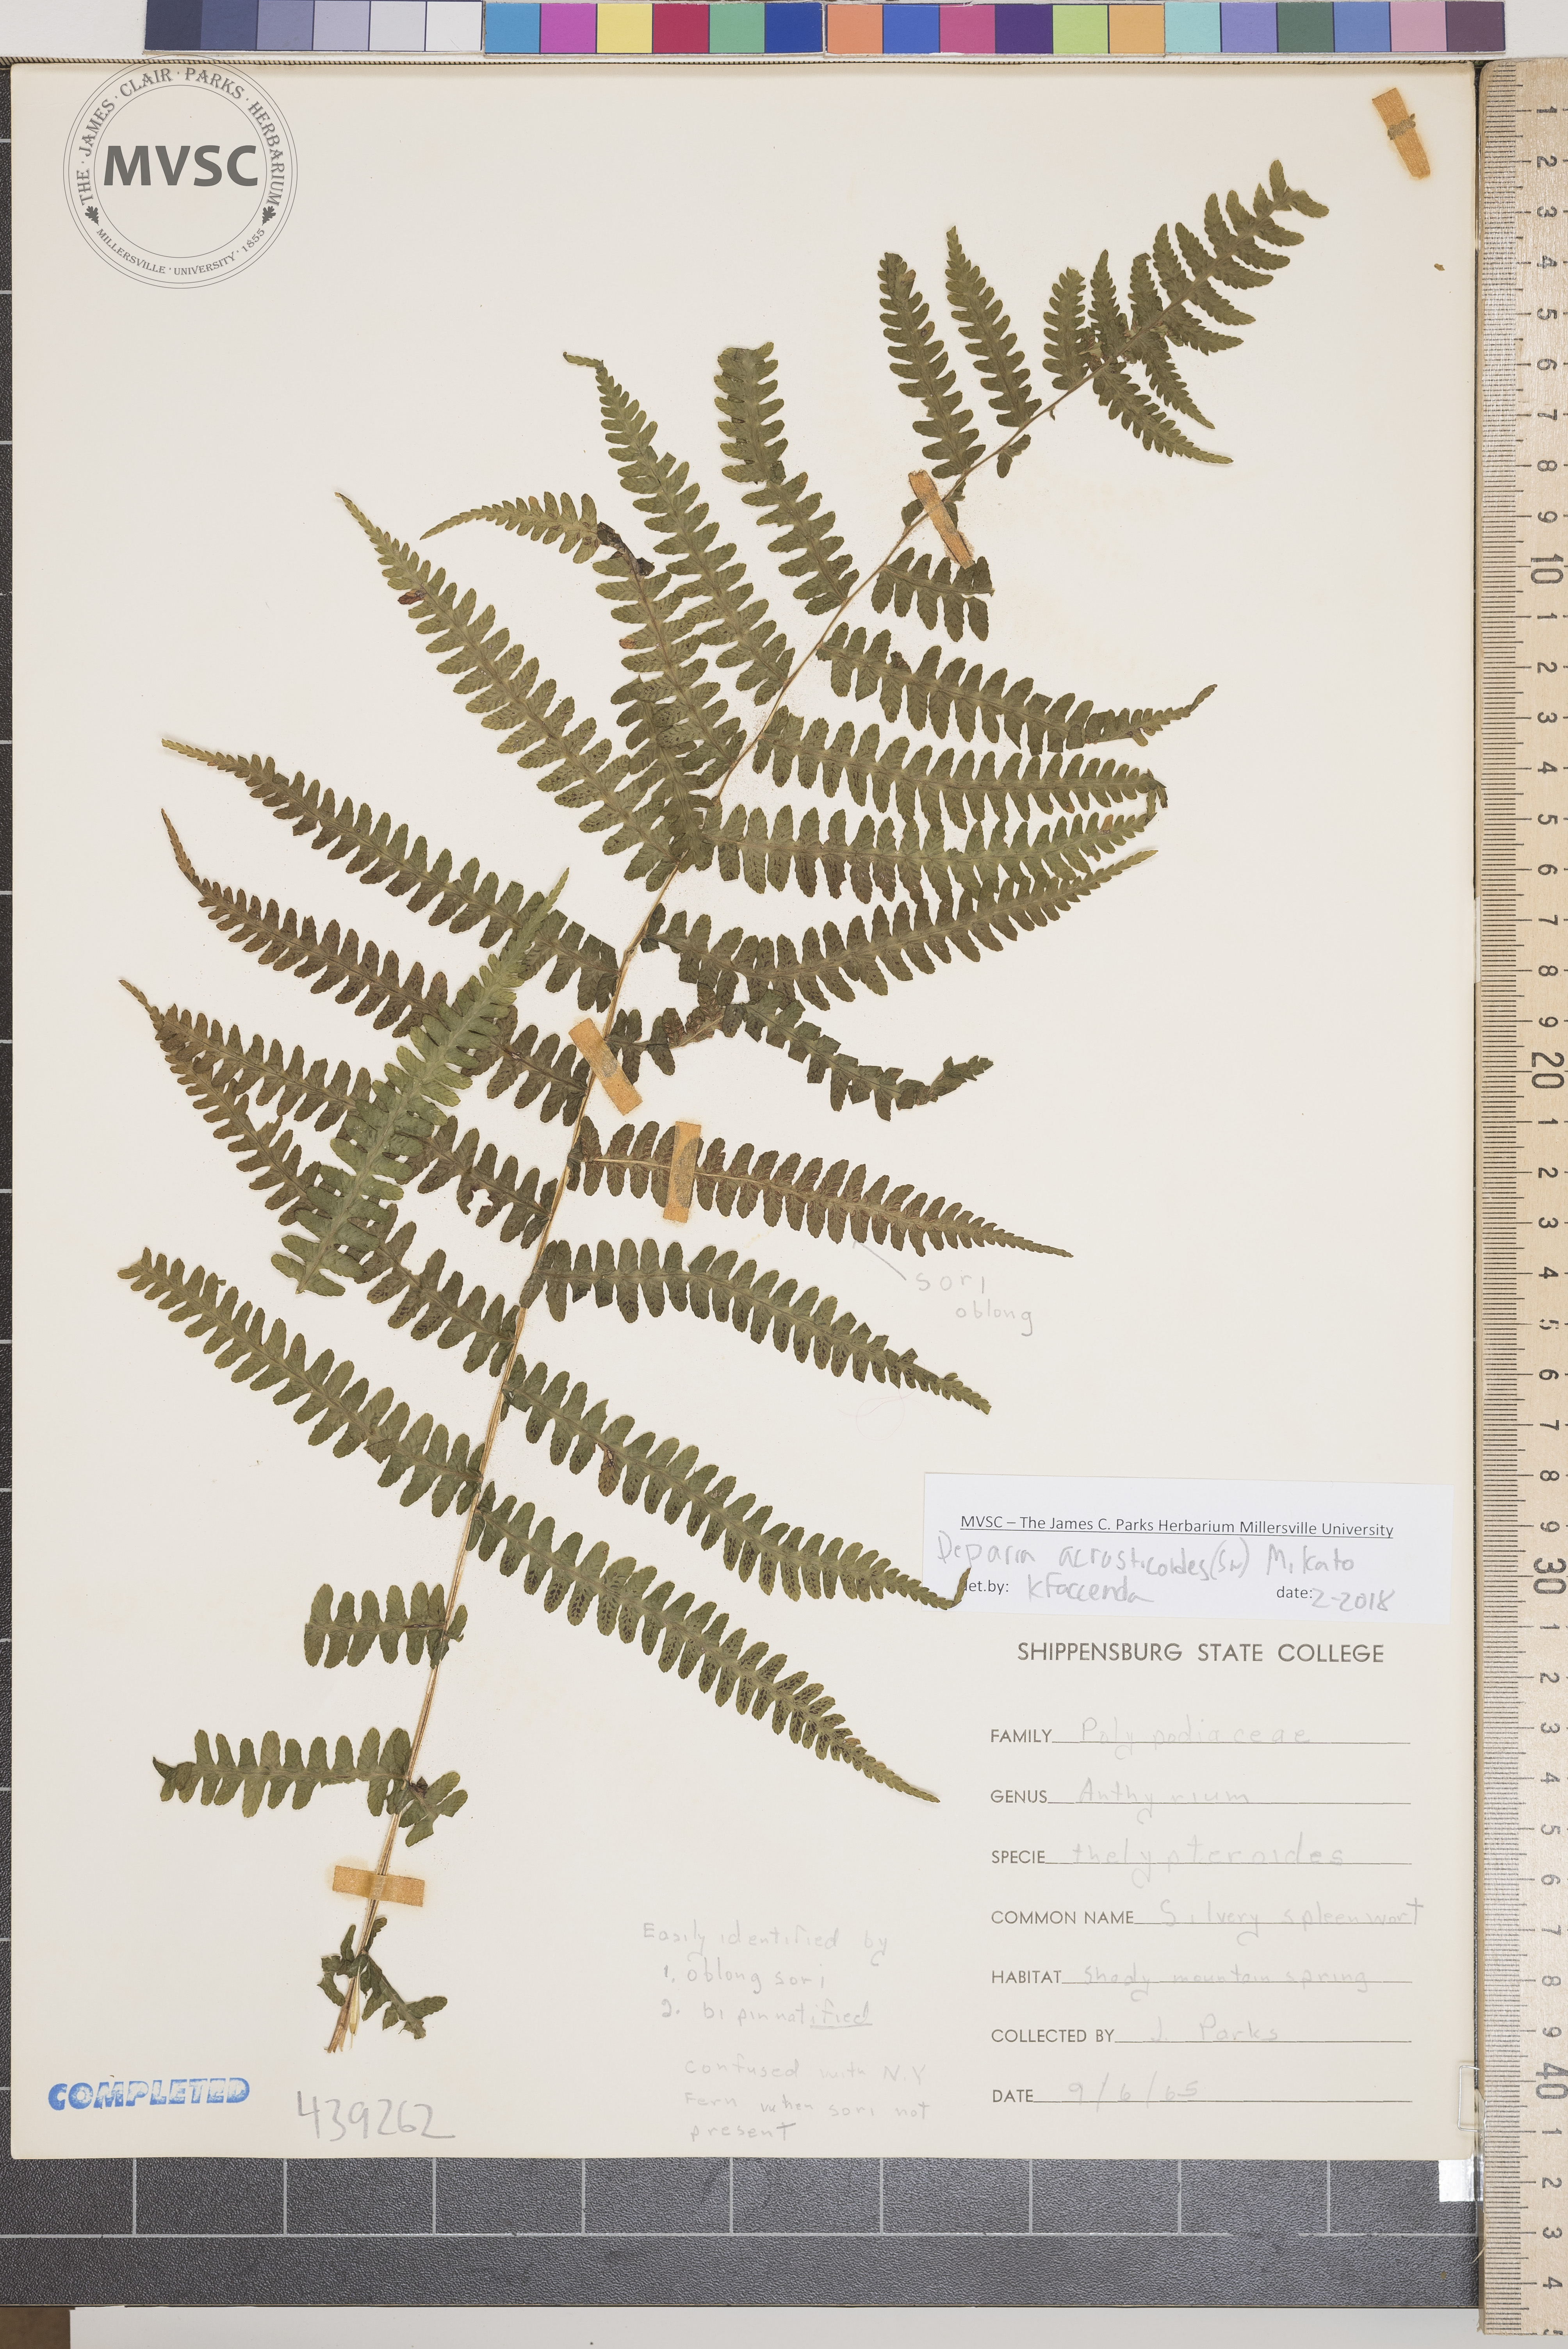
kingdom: Plantae
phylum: Tracheophyta
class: Polypodiopsida
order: Polypodiales
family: Athyriaceae
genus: Deparia
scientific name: Deparia acrostichoides
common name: Silvery glade fern
